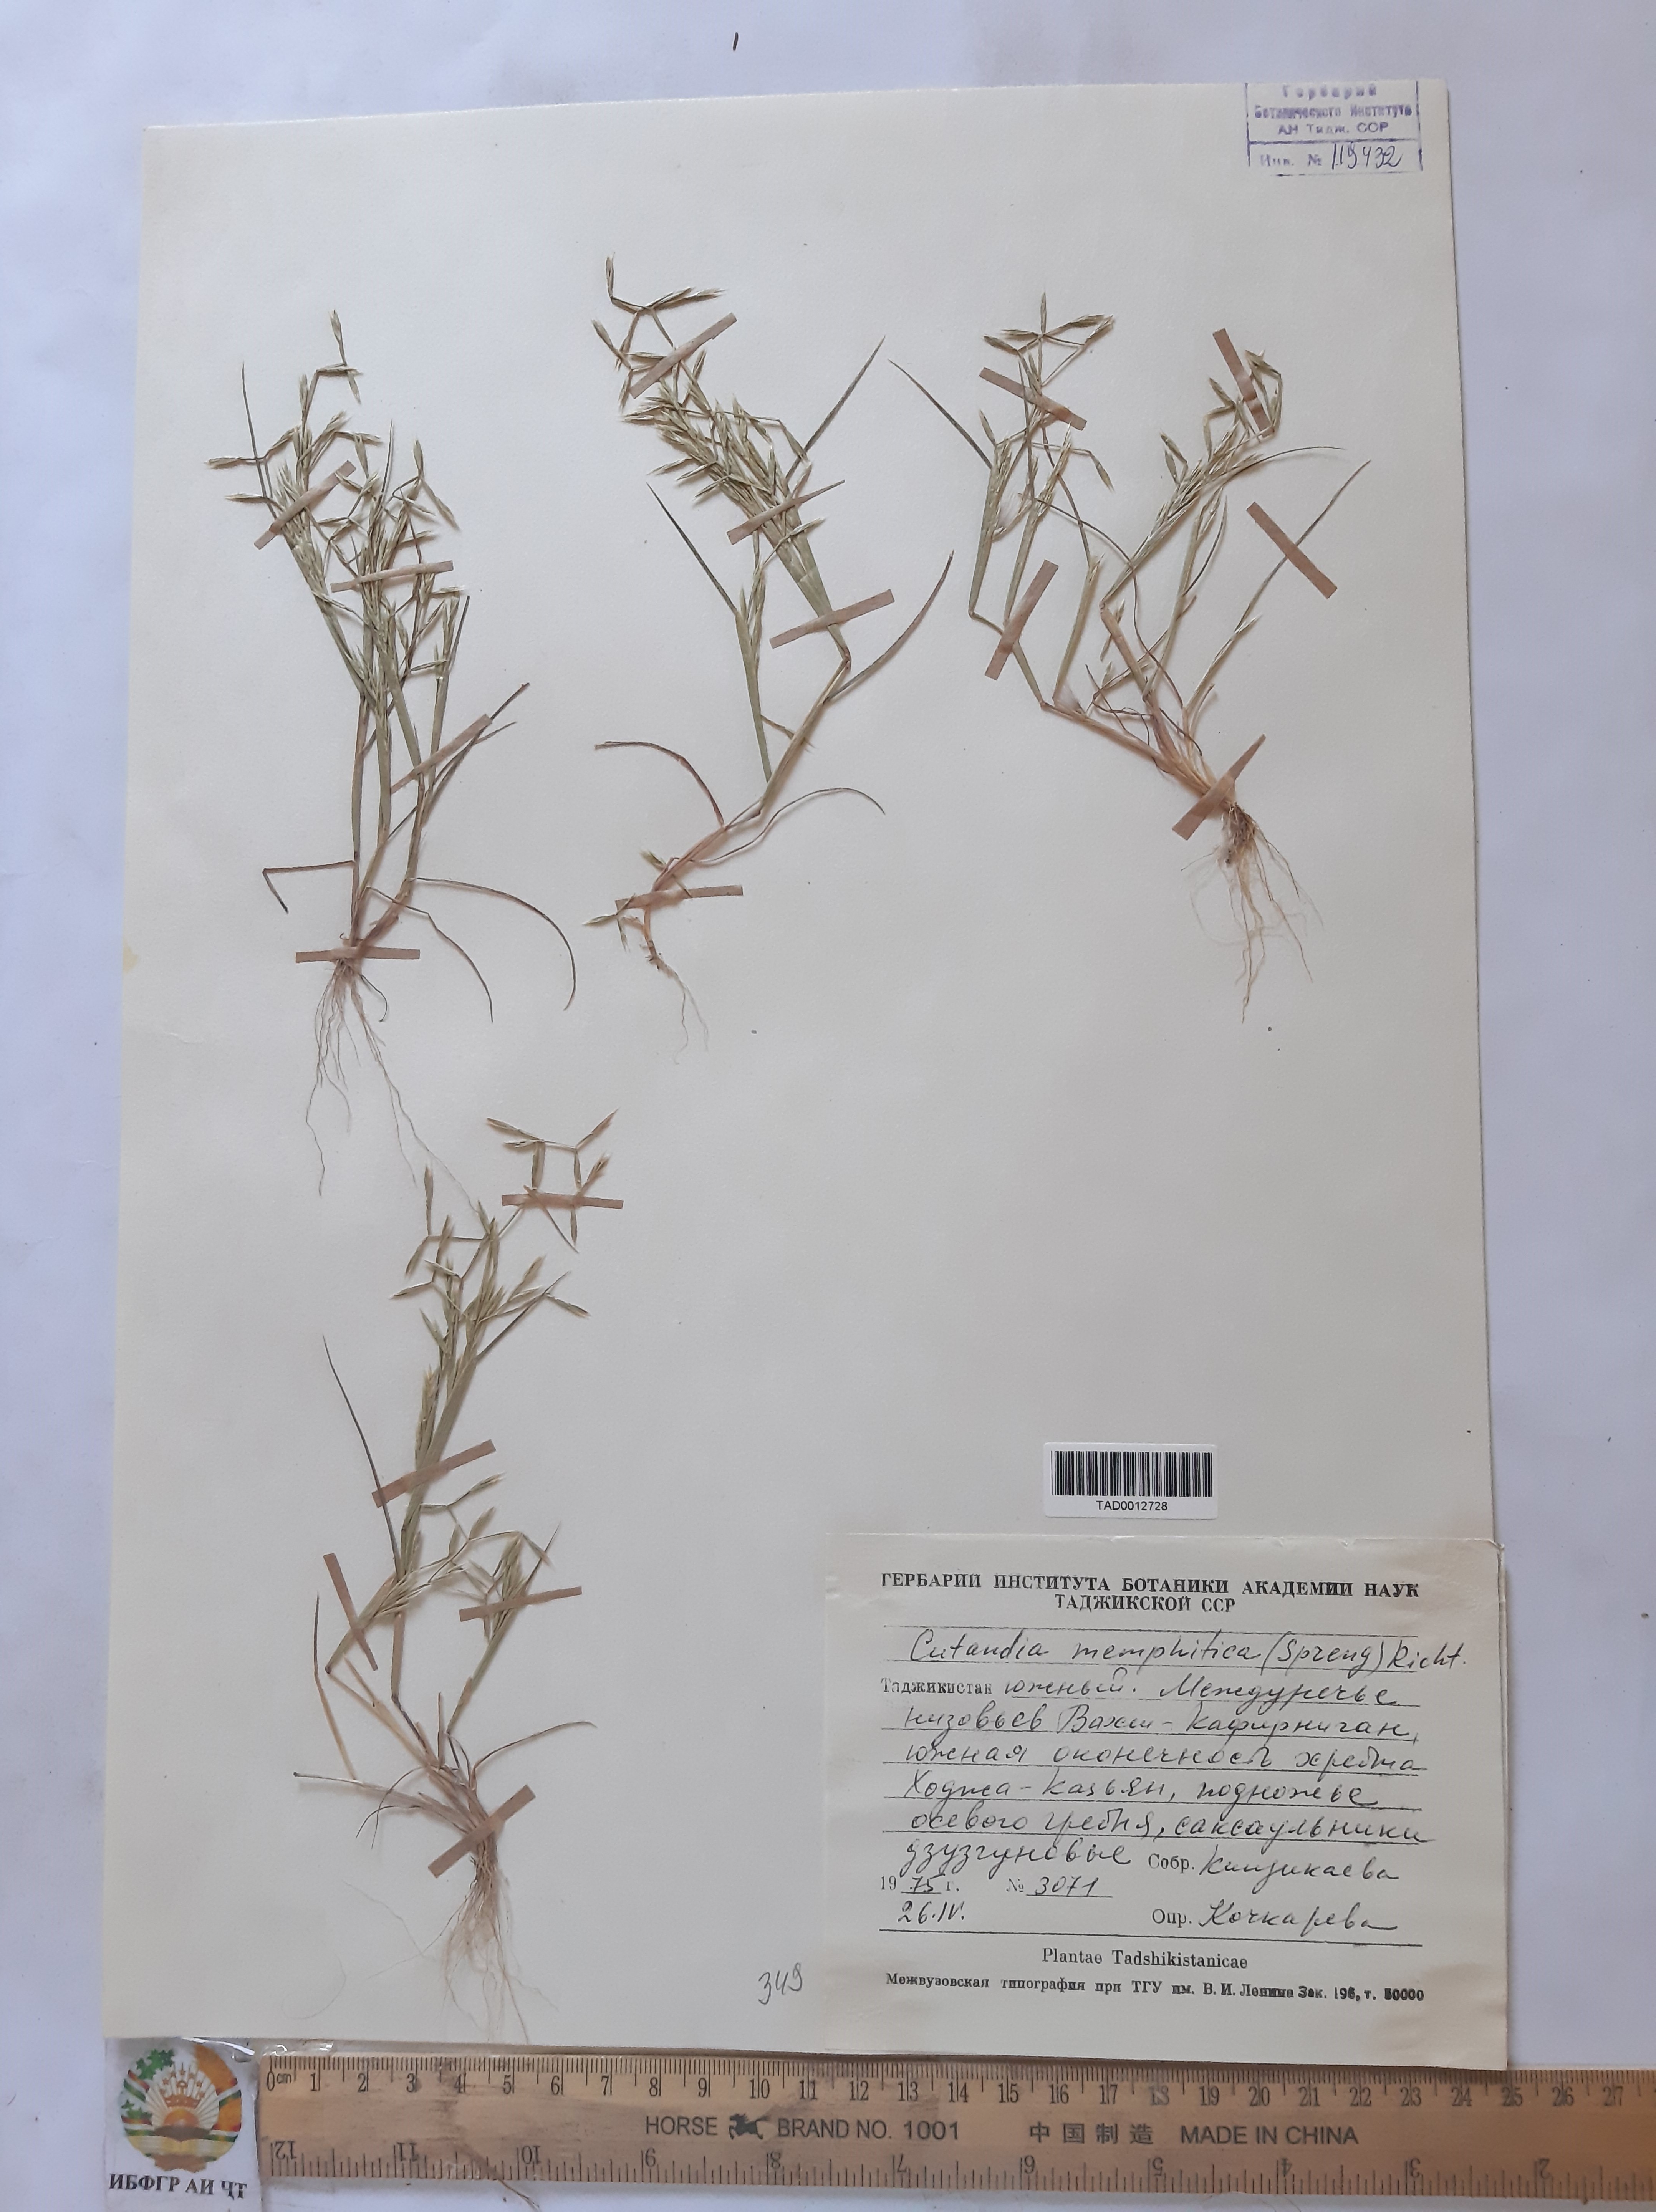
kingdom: Plantae
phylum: Tracheophyta
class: Liliopsida
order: Poales
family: Poaceae
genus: Cutandia
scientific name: Cutandia memphitica
